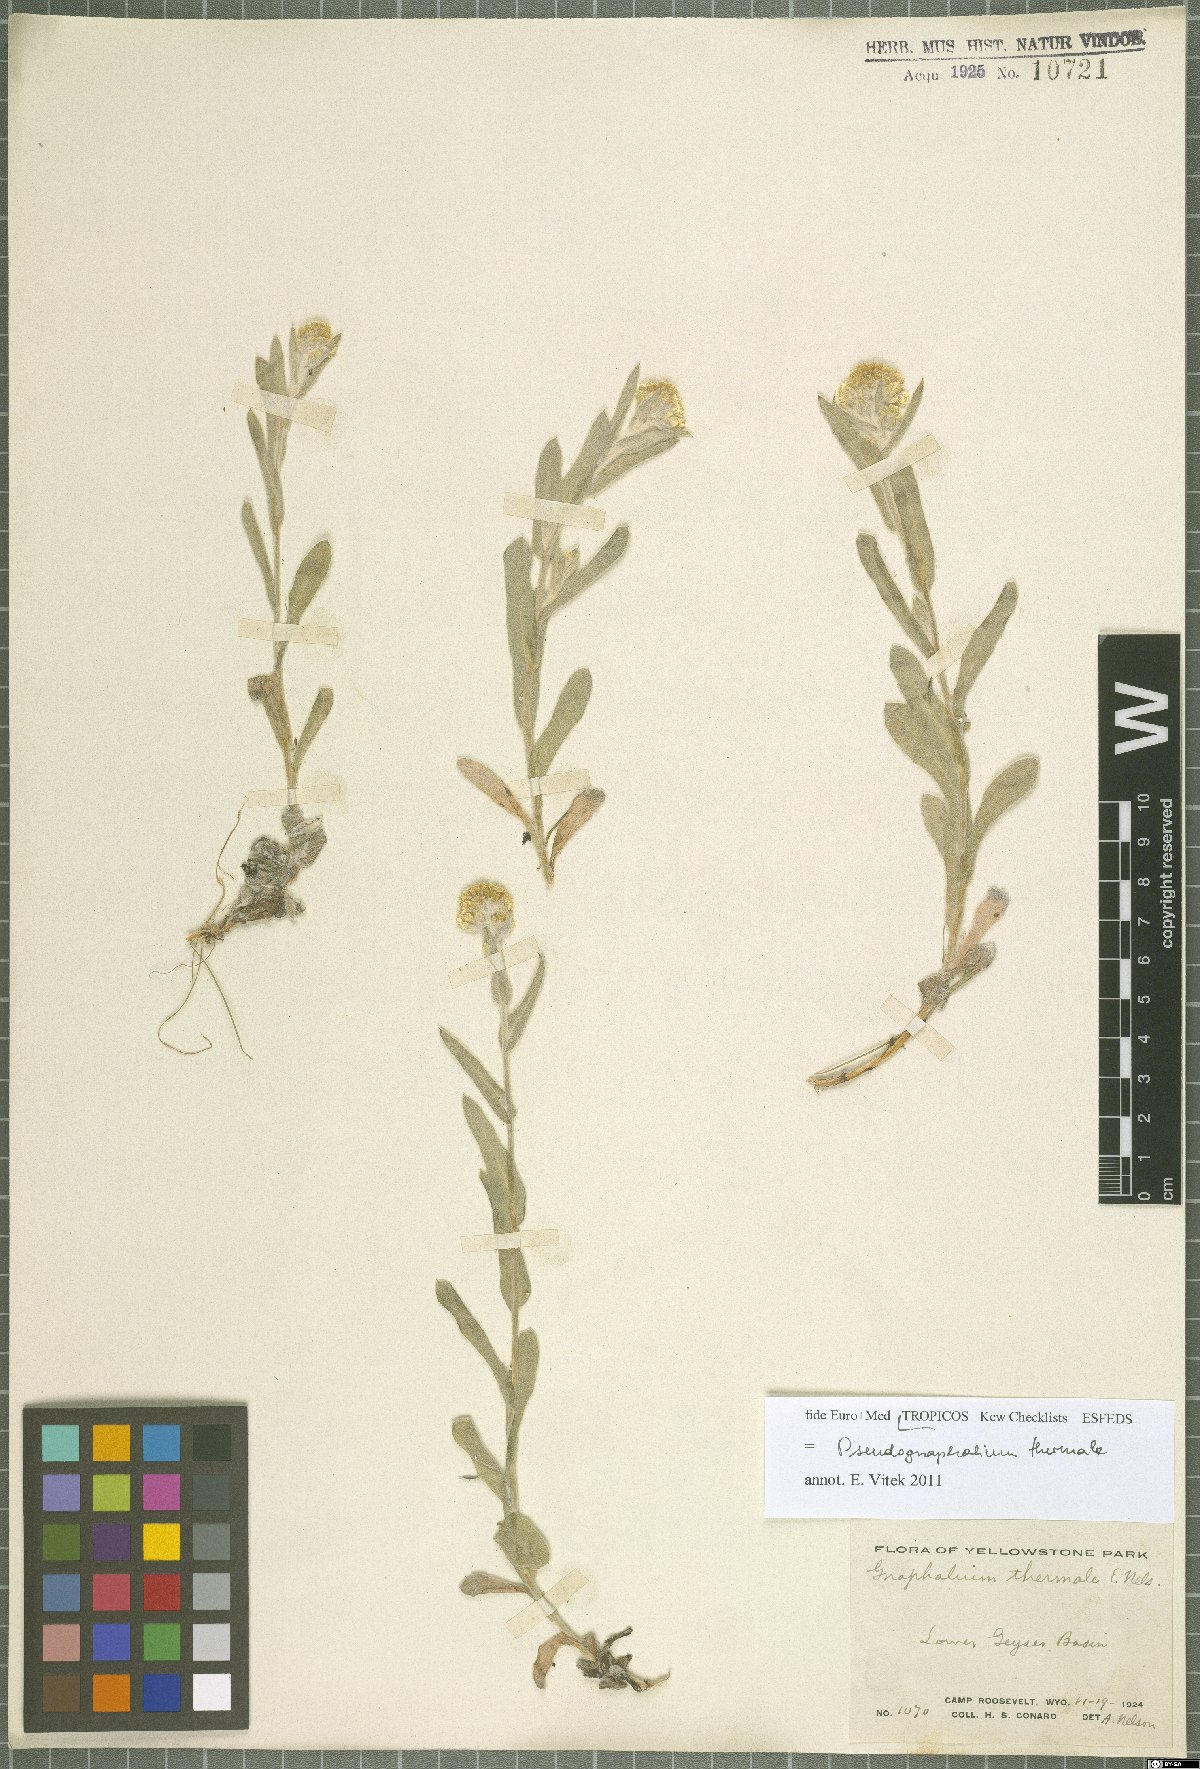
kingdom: Plantae
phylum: Tracheophyta
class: Magnoliopsida
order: Asterales
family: Asteraceae
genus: Pseudognaphalium
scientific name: Pseudognaphalium thermale
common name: Northwestern rabbit-tobacco
